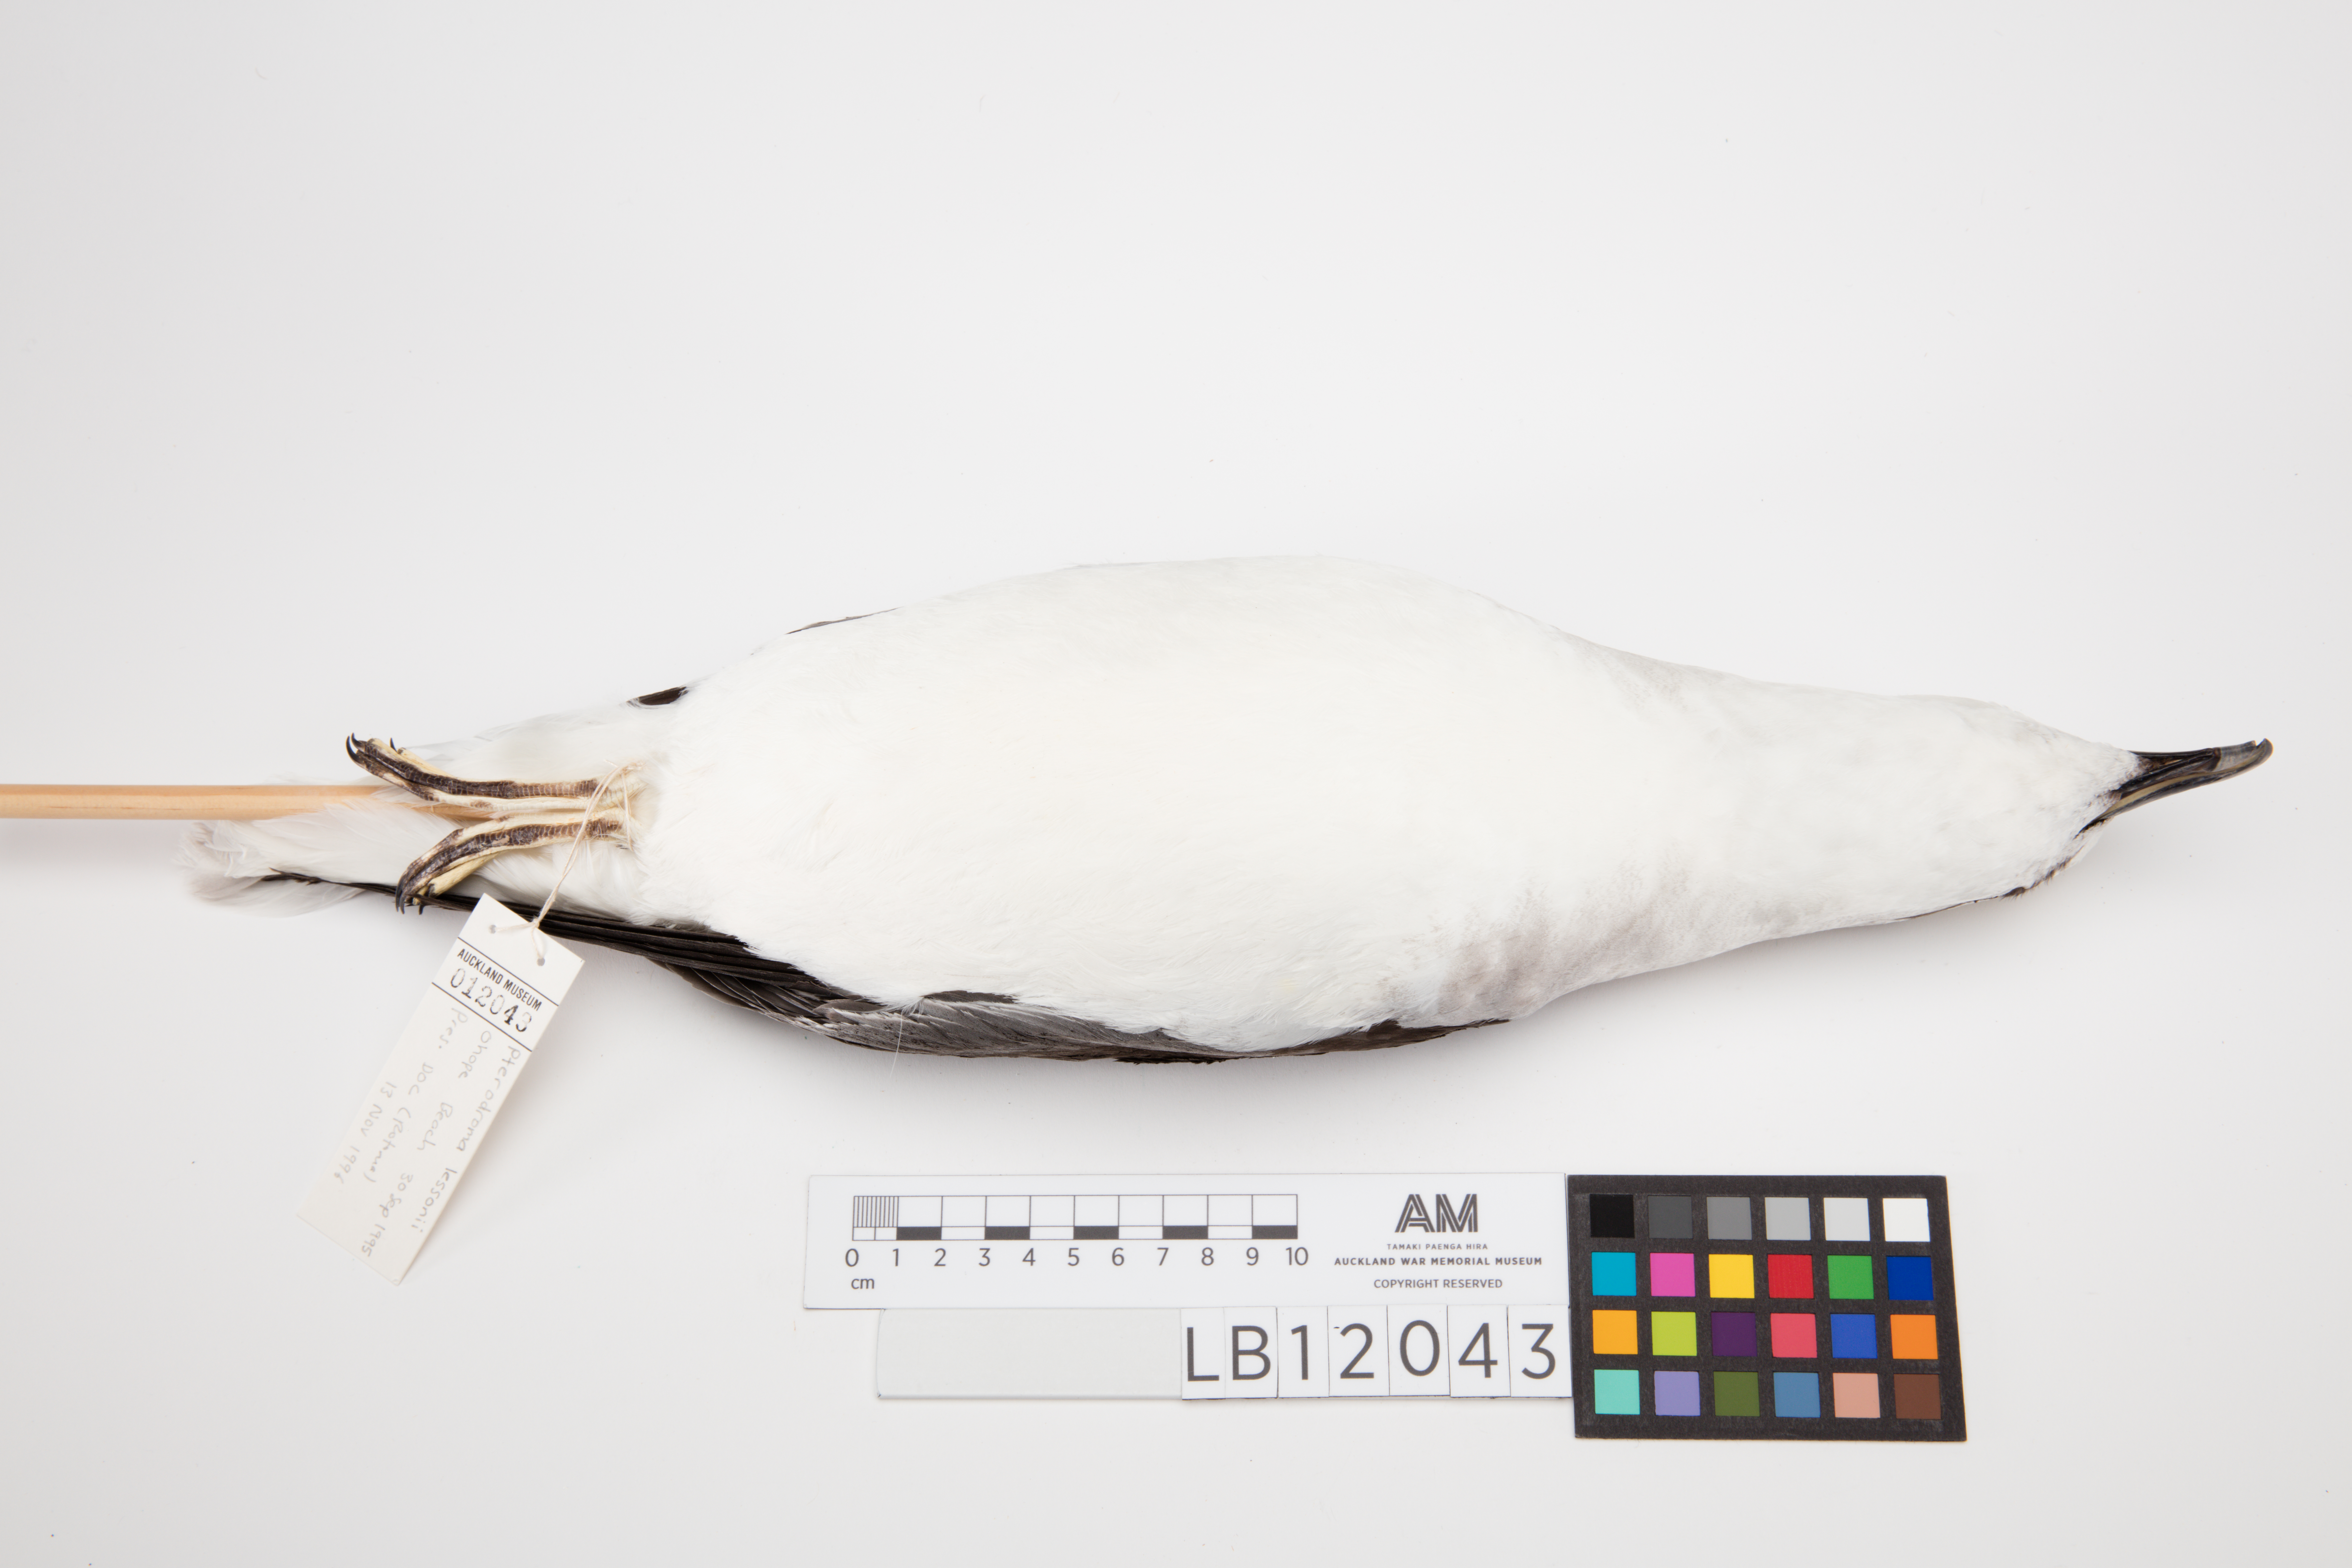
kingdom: Animalia
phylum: Chordata
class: Aves
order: Procellariiformes
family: Procellariidae
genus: Pterodroma
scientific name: Pterodroma lessonii
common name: White-headed petrel
